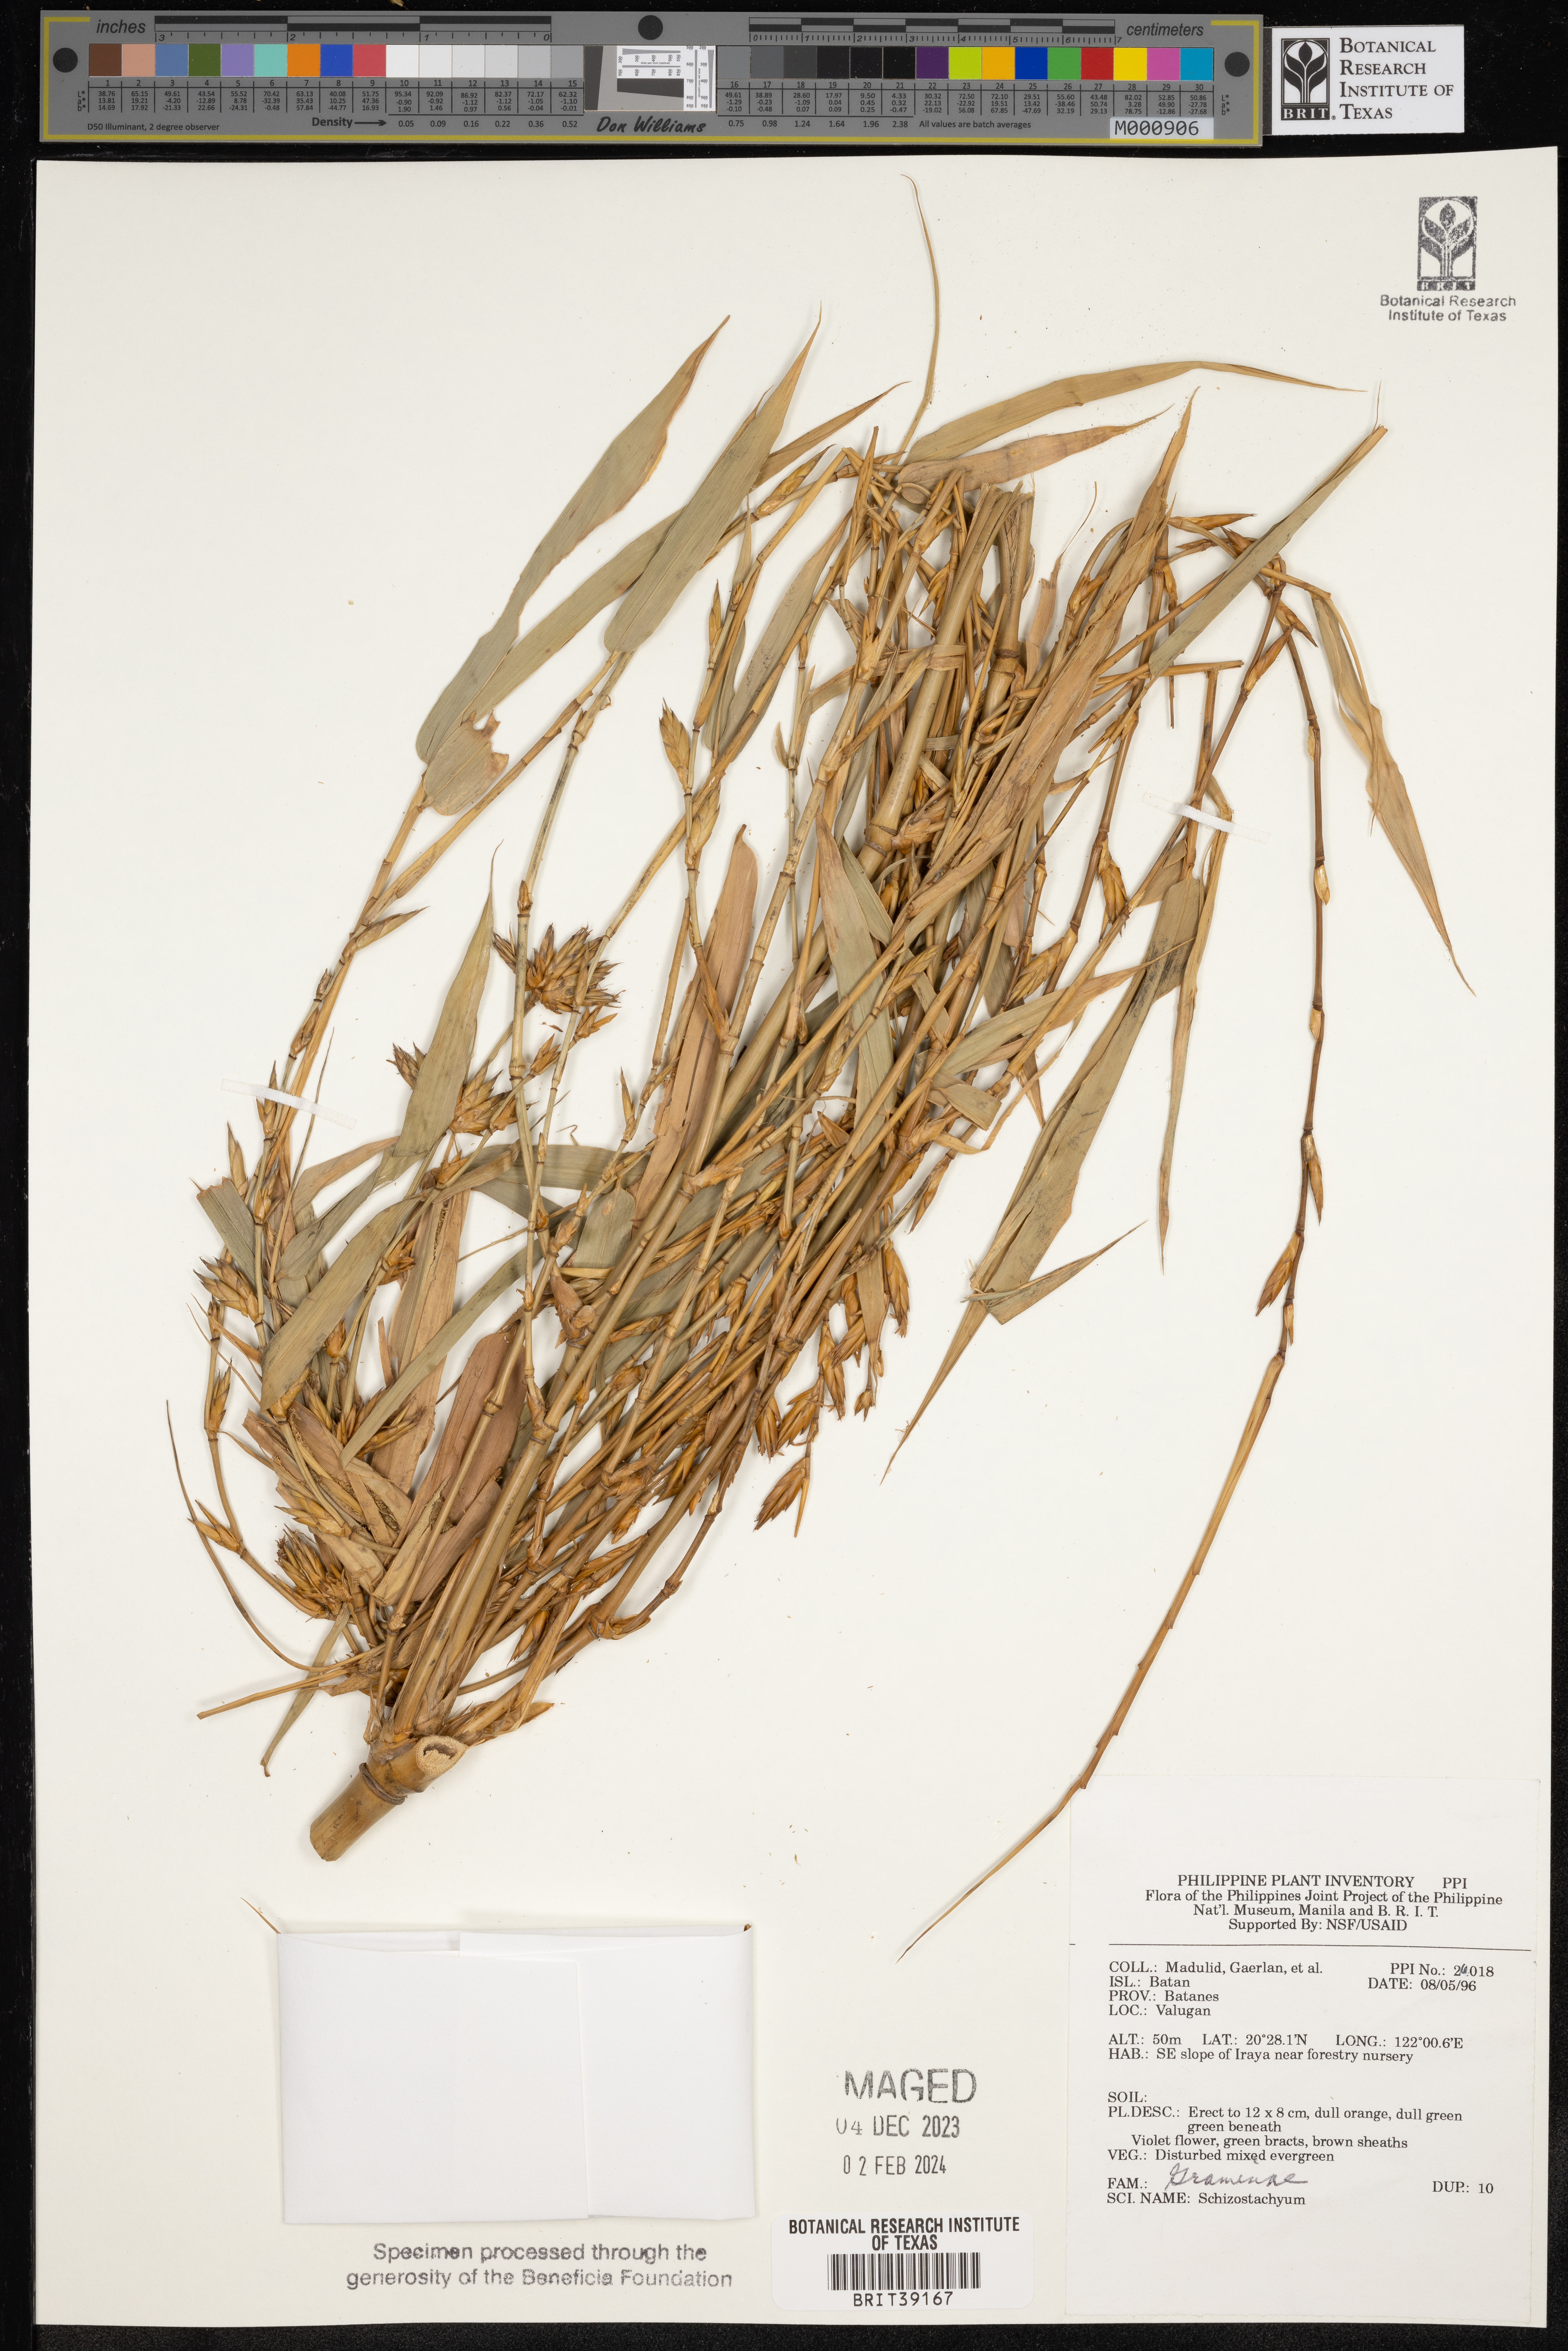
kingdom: Plantae
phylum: Tracheophyta
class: Liliopsida
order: Poales
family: Poaceae
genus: Schizostachyum
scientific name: Schizostachyum
